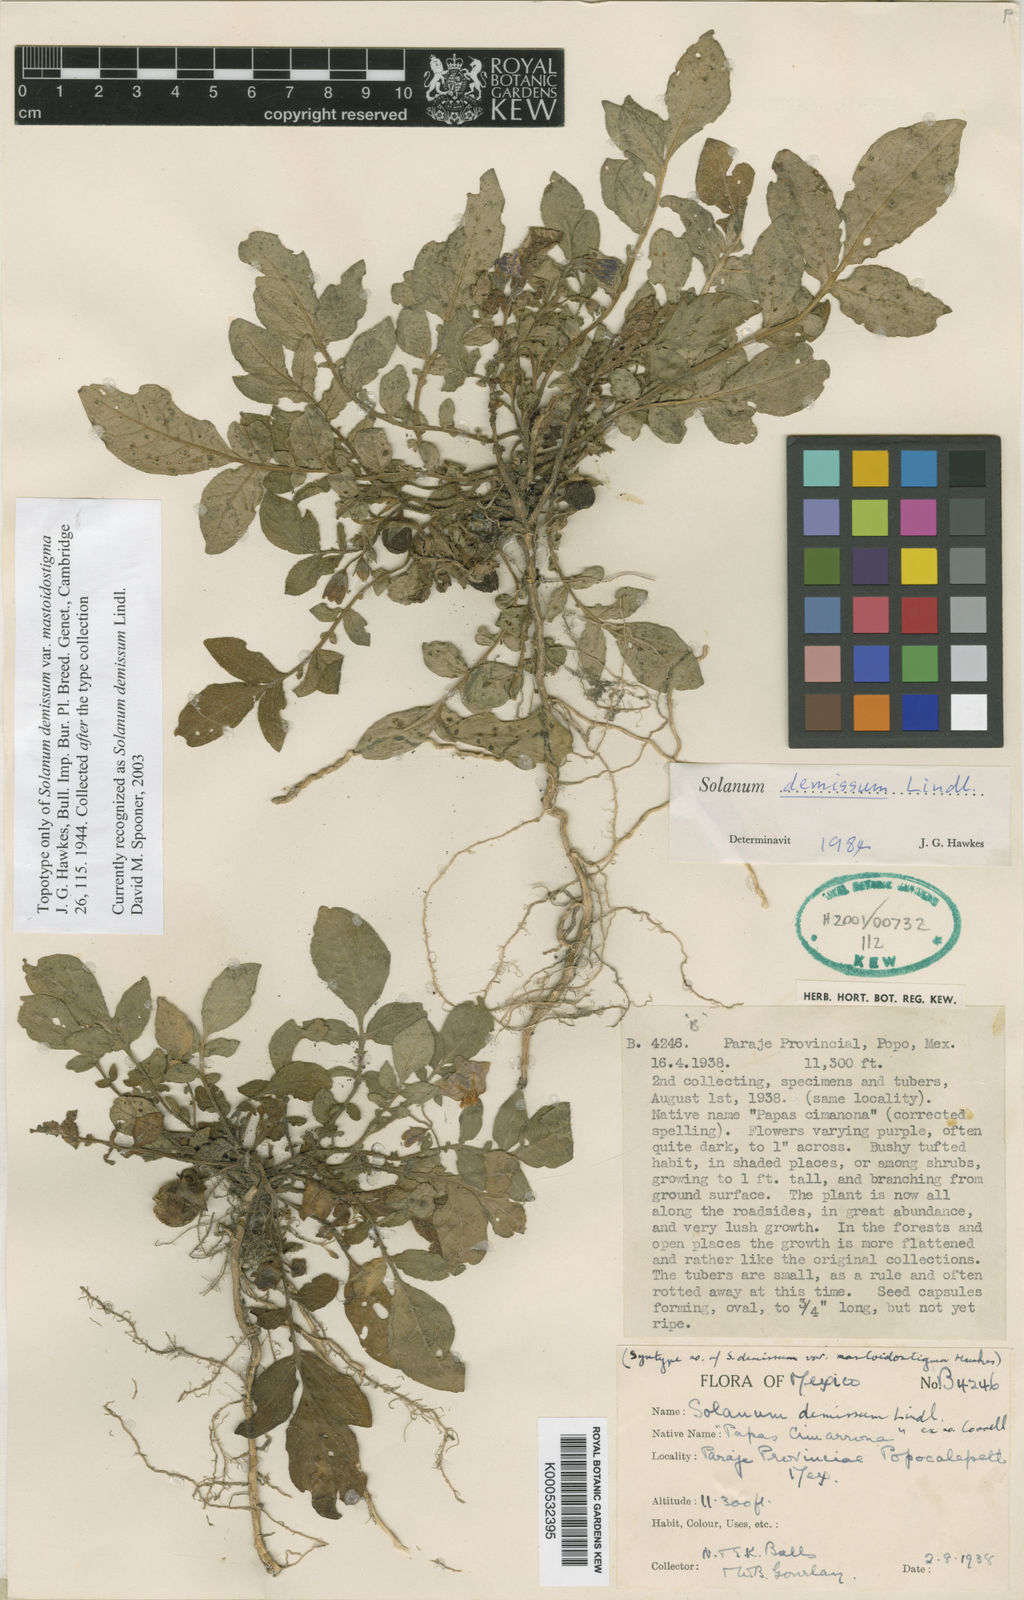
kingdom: Plantae
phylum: Tracheophyta
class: Magnoliopsida
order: Solanales
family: Solanaceae
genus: Solanum
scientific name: Solanum demissum
